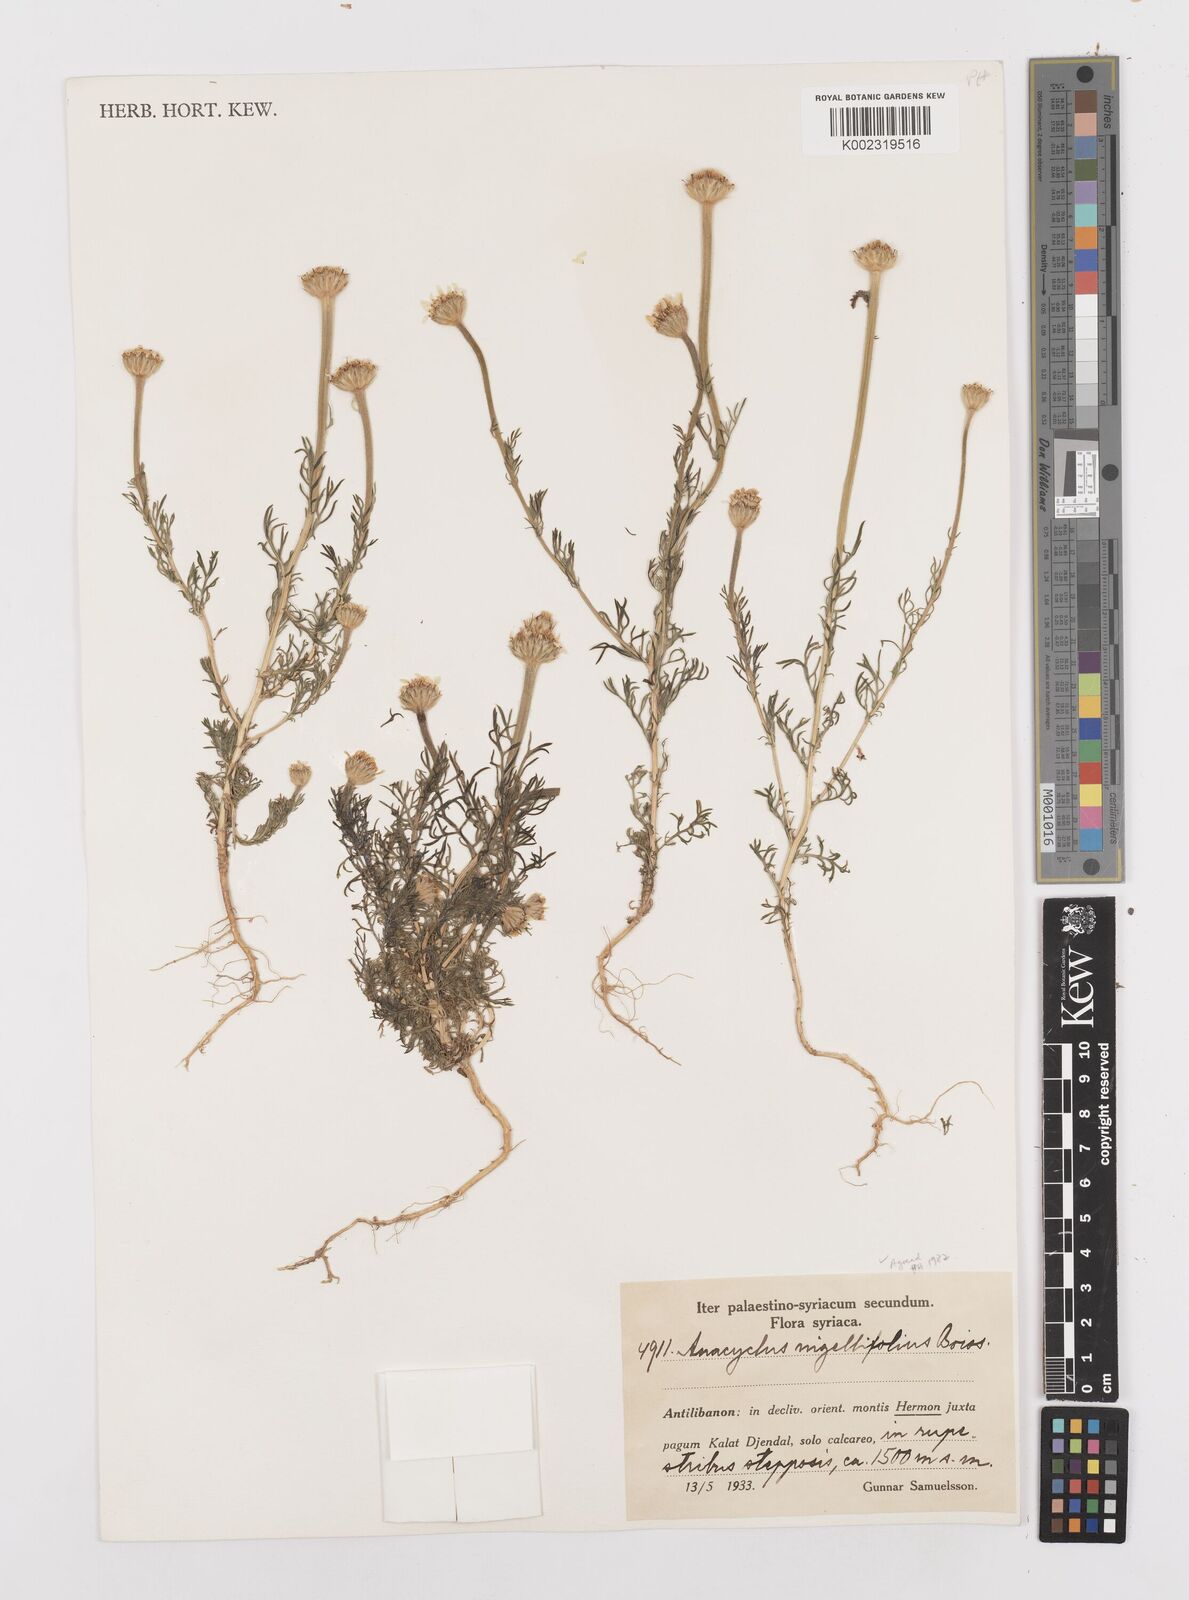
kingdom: Plantae
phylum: Tracheophyta
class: Magnoliopsida
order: Asterales
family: Asteraceae
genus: Cota
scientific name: Cota nigellifolia
